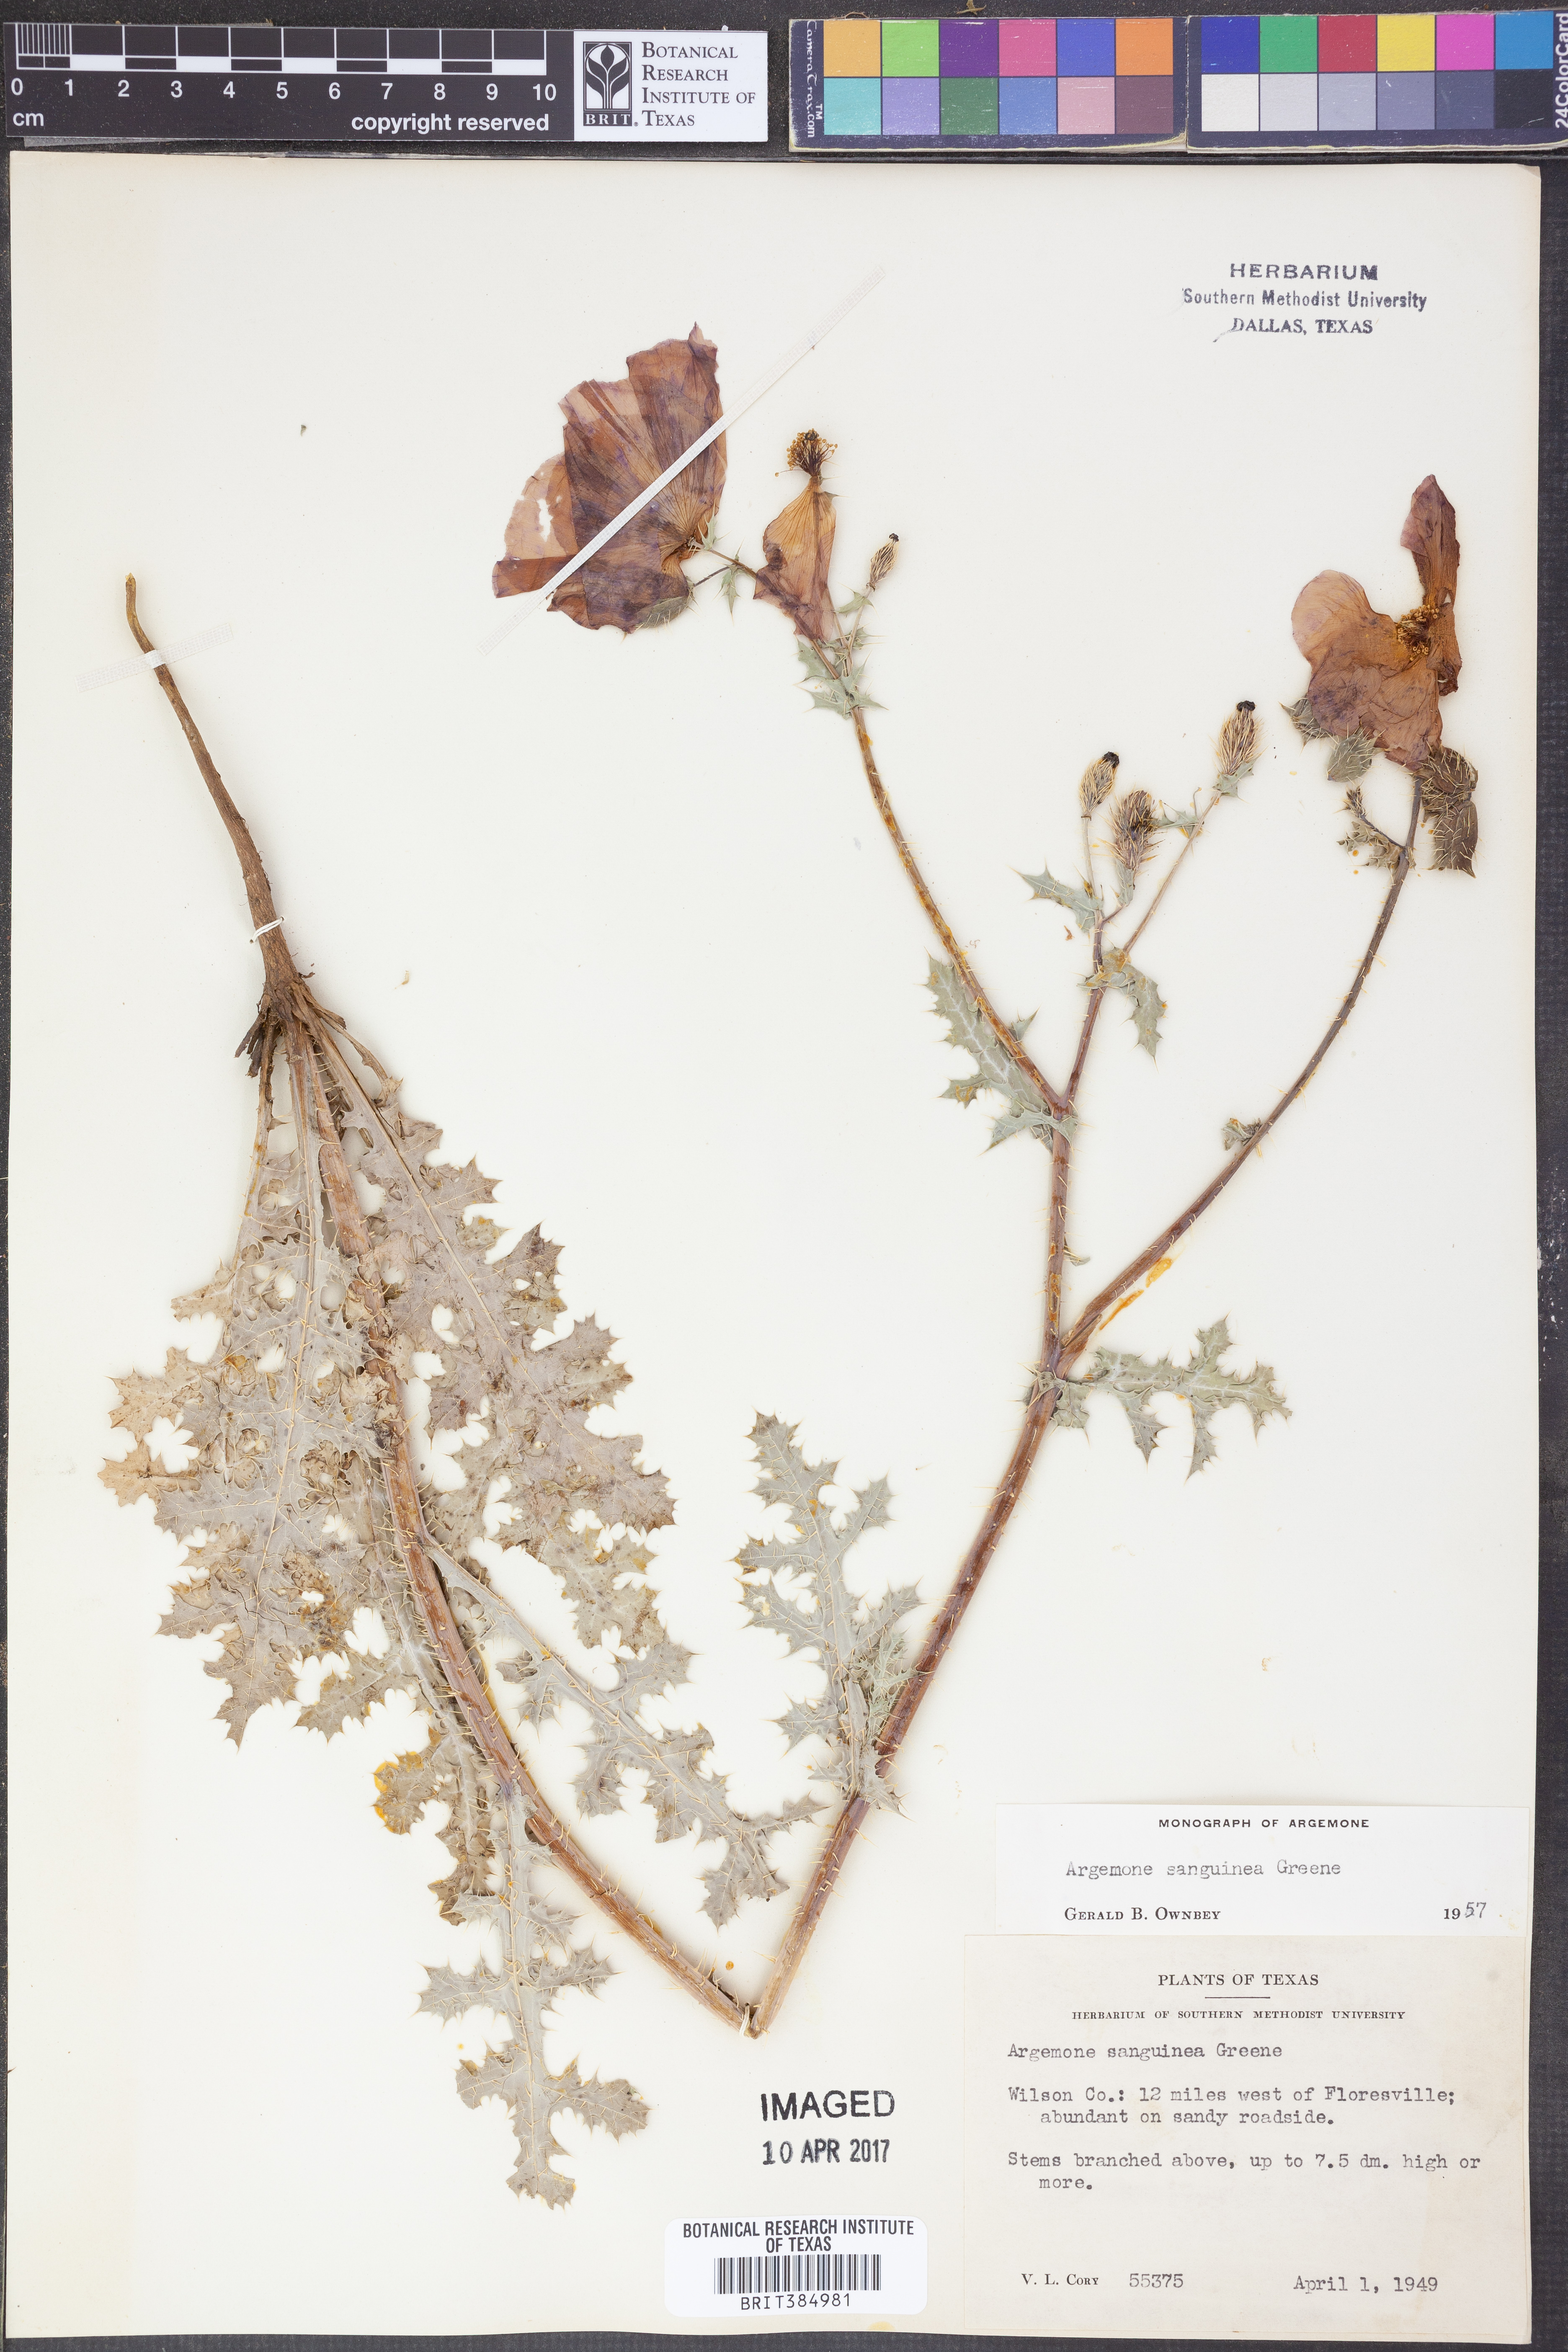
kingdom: Plantae
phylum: Tracheophyta
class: Magnoliopsida
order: Ranunculales
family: Papaveraceae
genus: Argemone
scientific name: Argemone sanguinea
